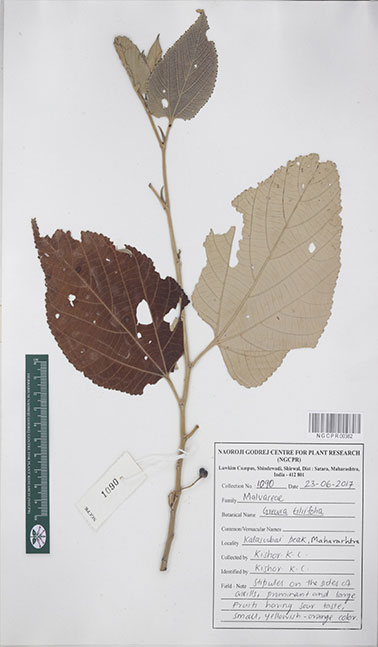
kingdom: Plantae
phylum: Tracheophyta
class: Magnoliopsida
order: Malvales
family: Malvaceae
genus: Grewia
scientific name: Grewia tiliifolia
